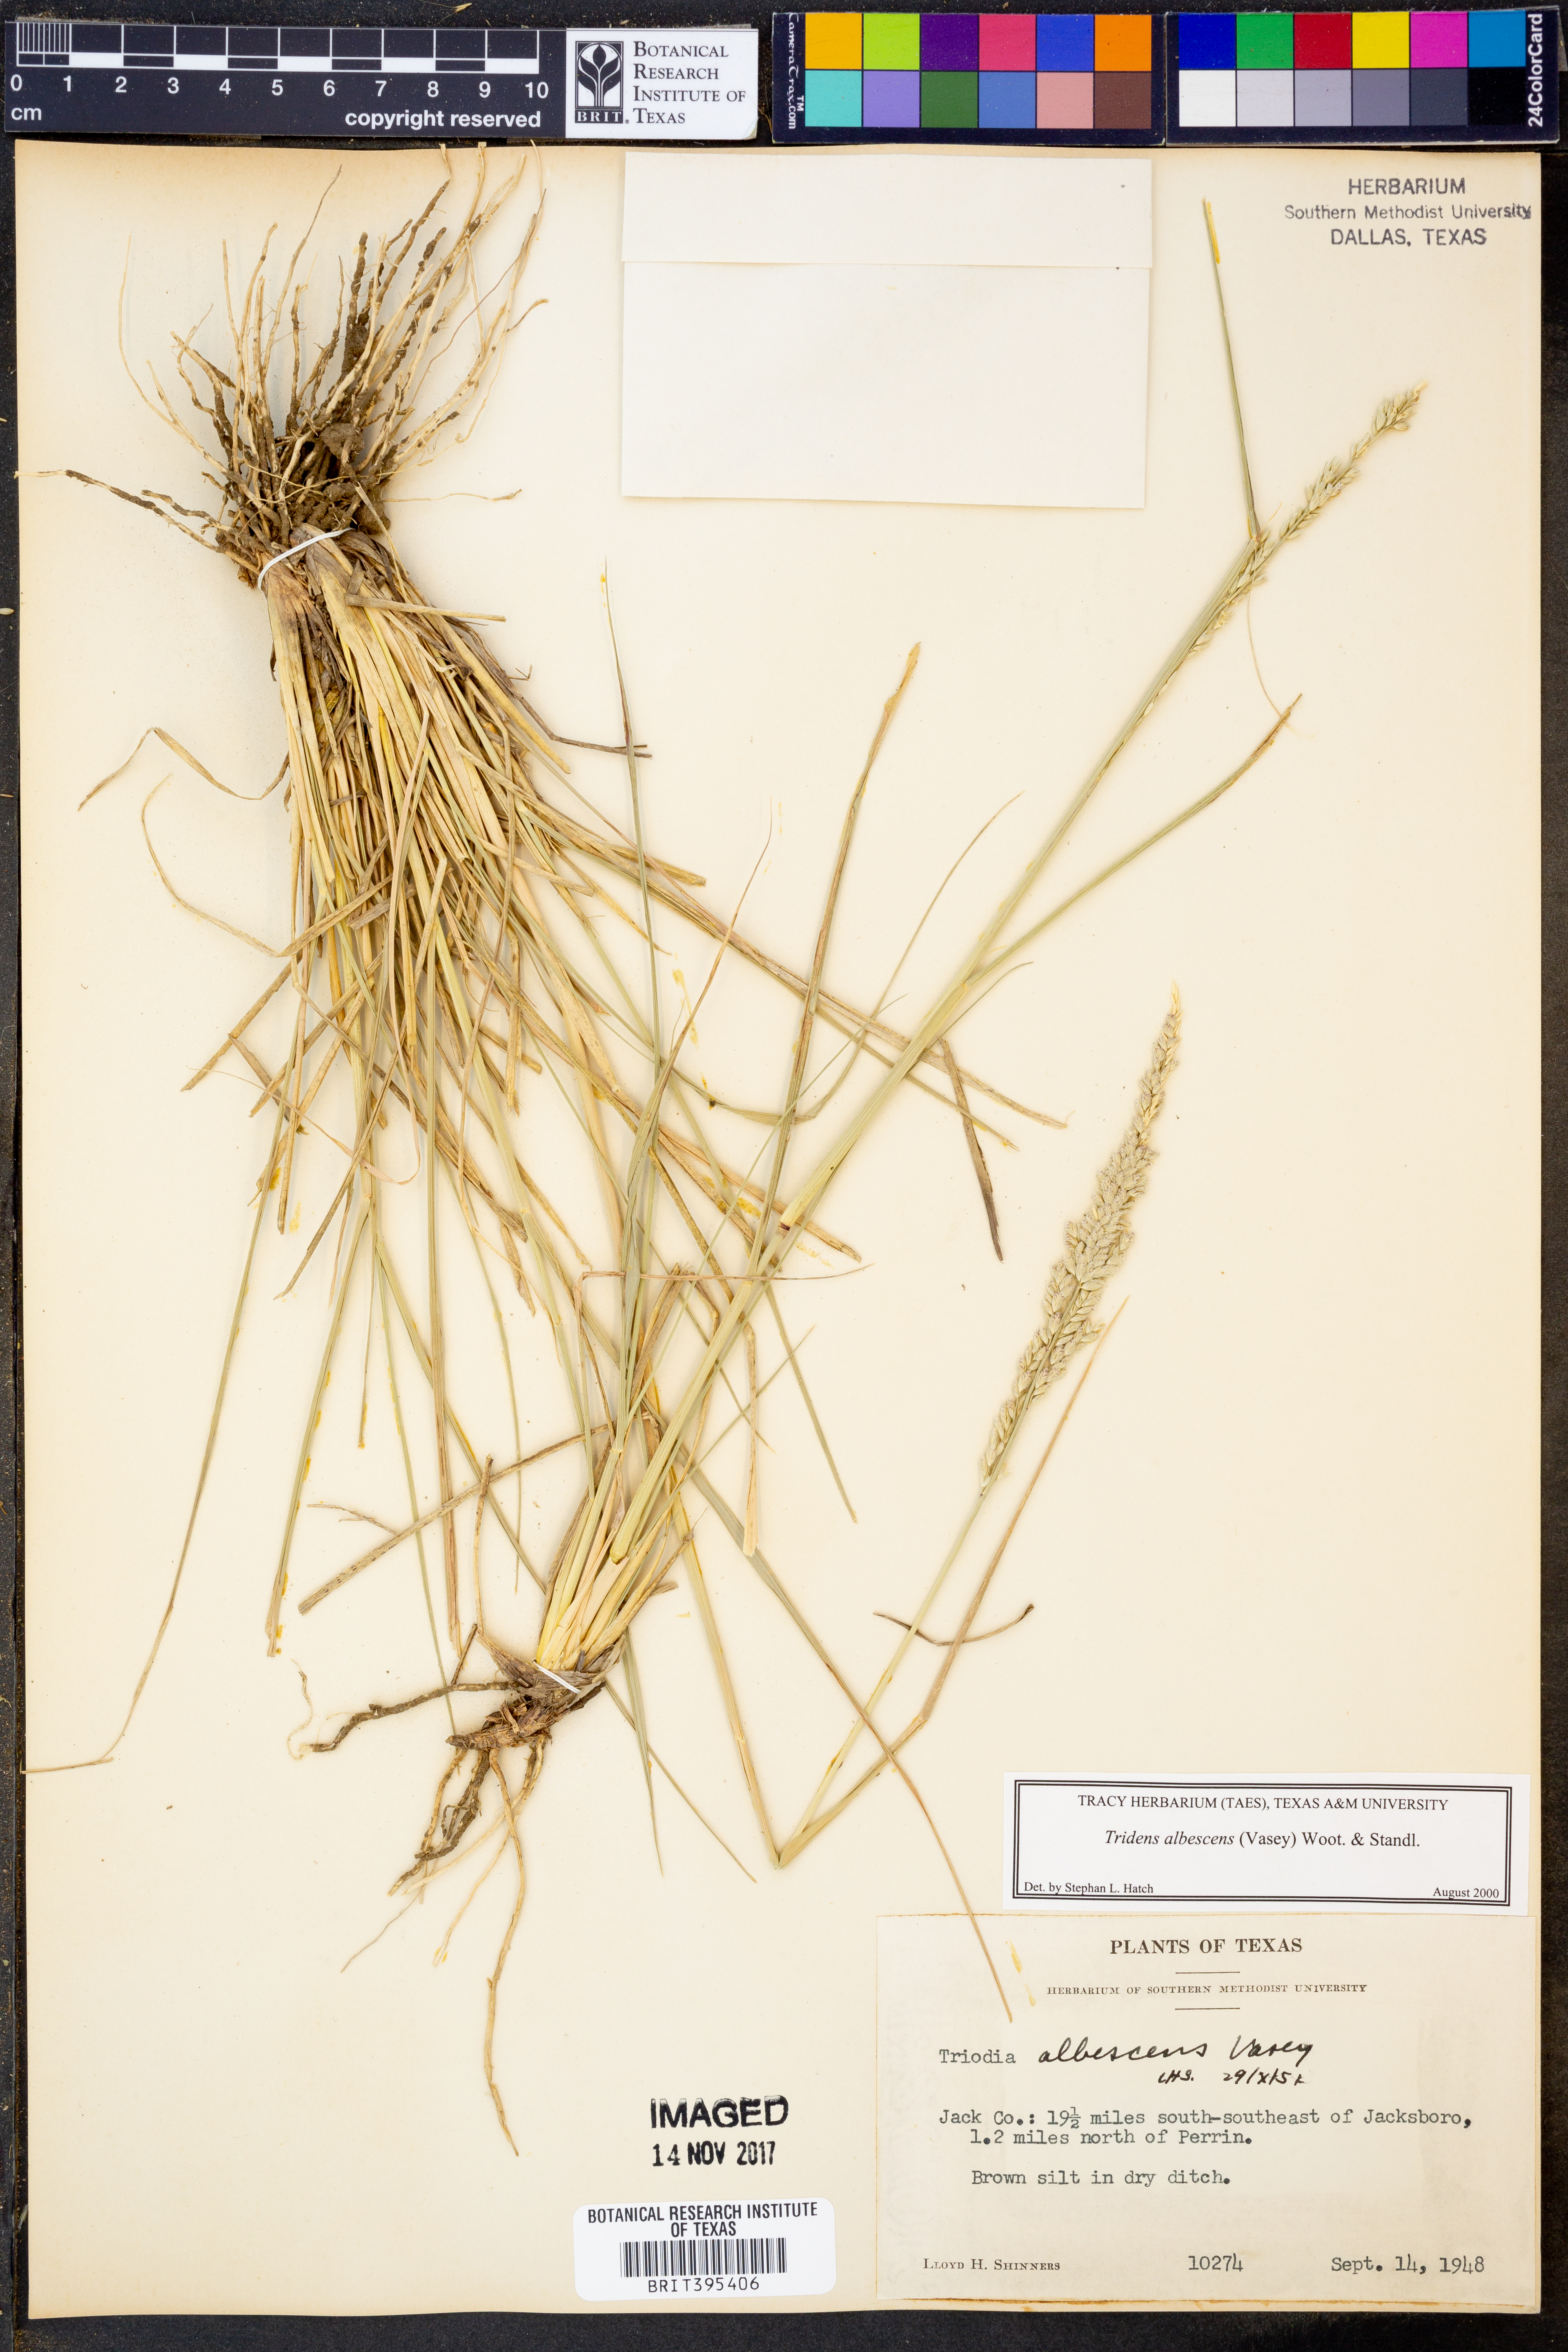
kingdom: Plantae
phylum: Tracheophyta
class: Liliopsida
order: Poales
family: Poaceae
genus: Tridens
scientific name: Tridens albescens
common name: White tridens
